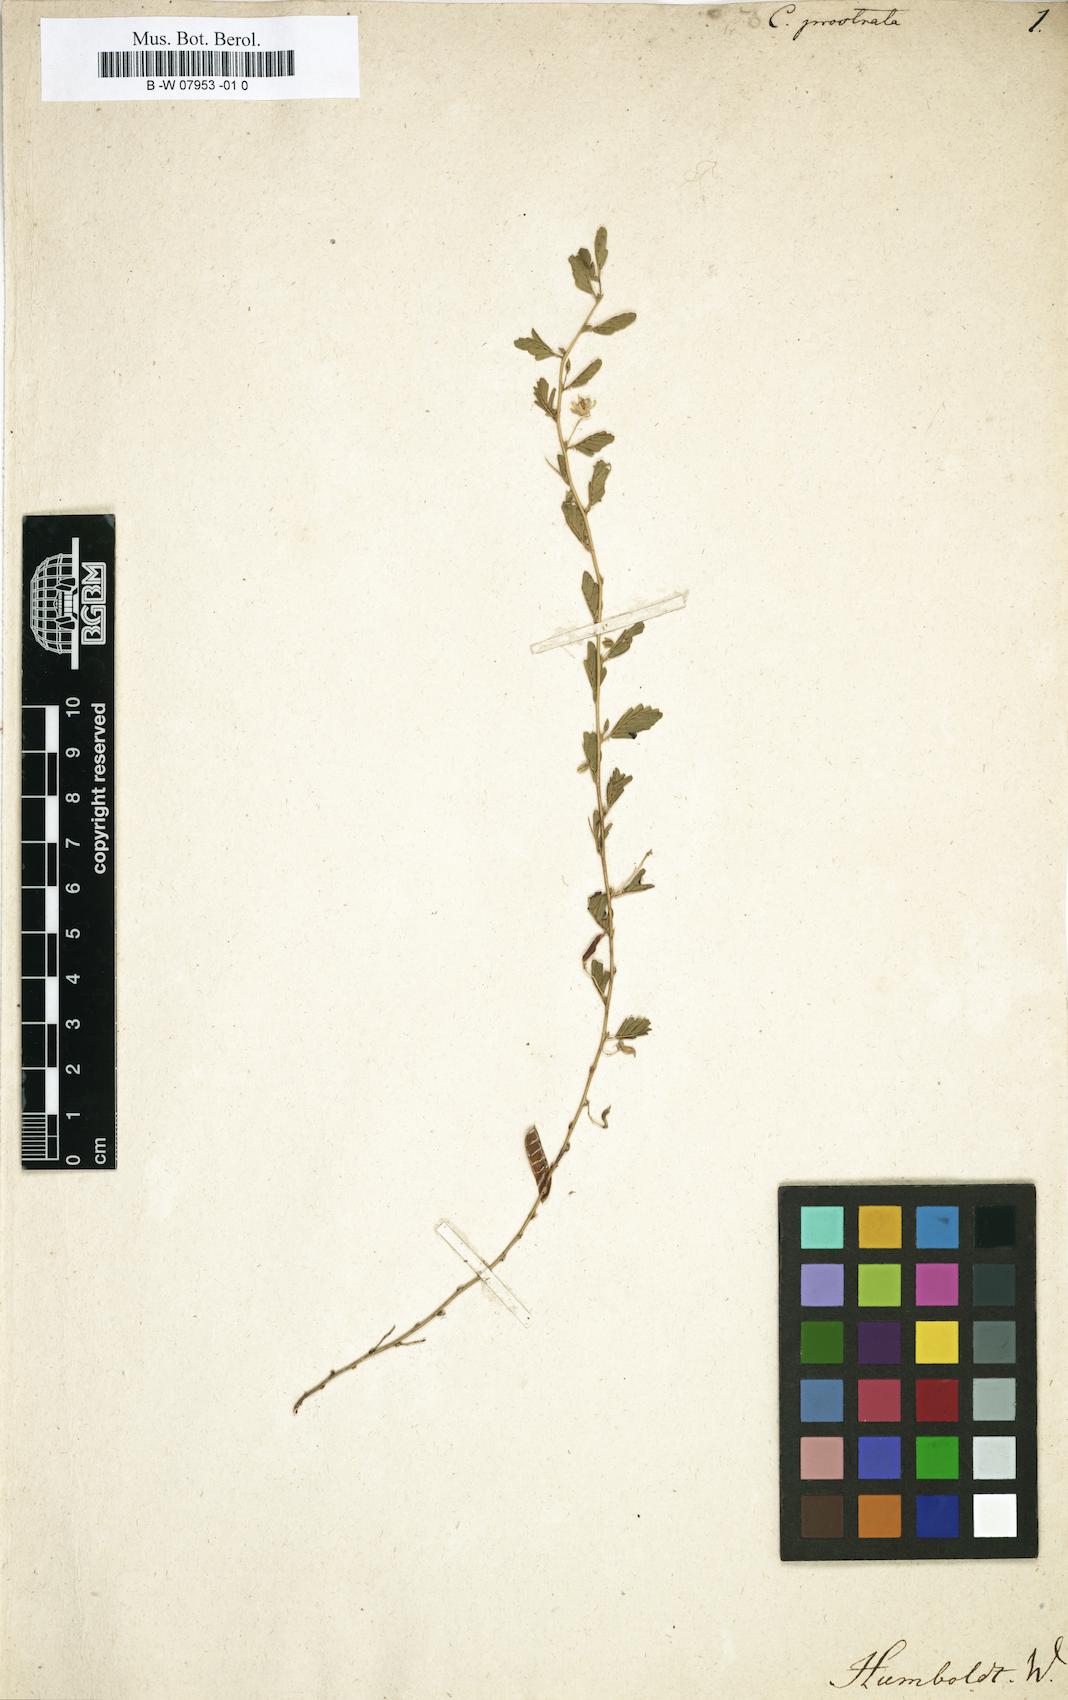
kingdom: Plantae
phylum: Tracheophyta
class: Magnoliopsida
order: Fabales
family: Fabaceae
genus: Chamaecrista
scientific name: Chamaecrista serpens
